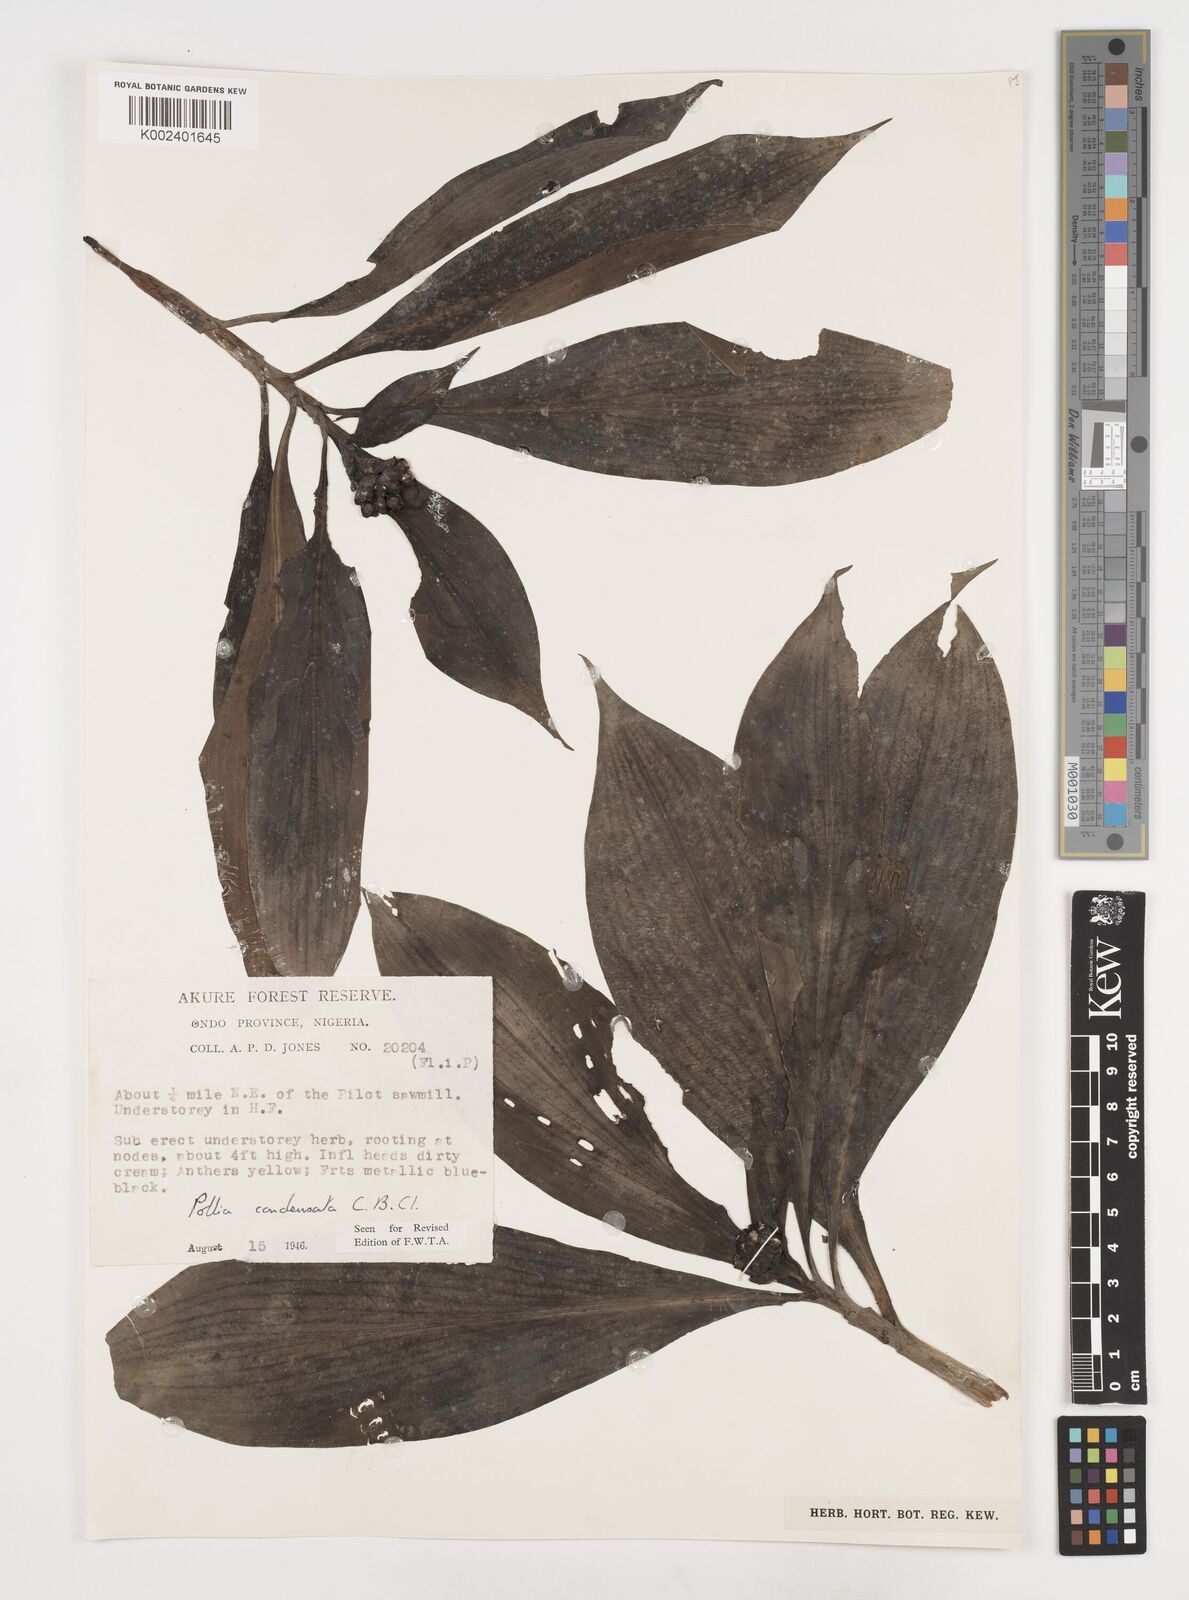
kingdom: Plantae
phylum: Tracheophyta
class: Liliopsida
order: Commelinales
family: Commelinaceae
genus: Pollia
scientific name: Pollia condensata
